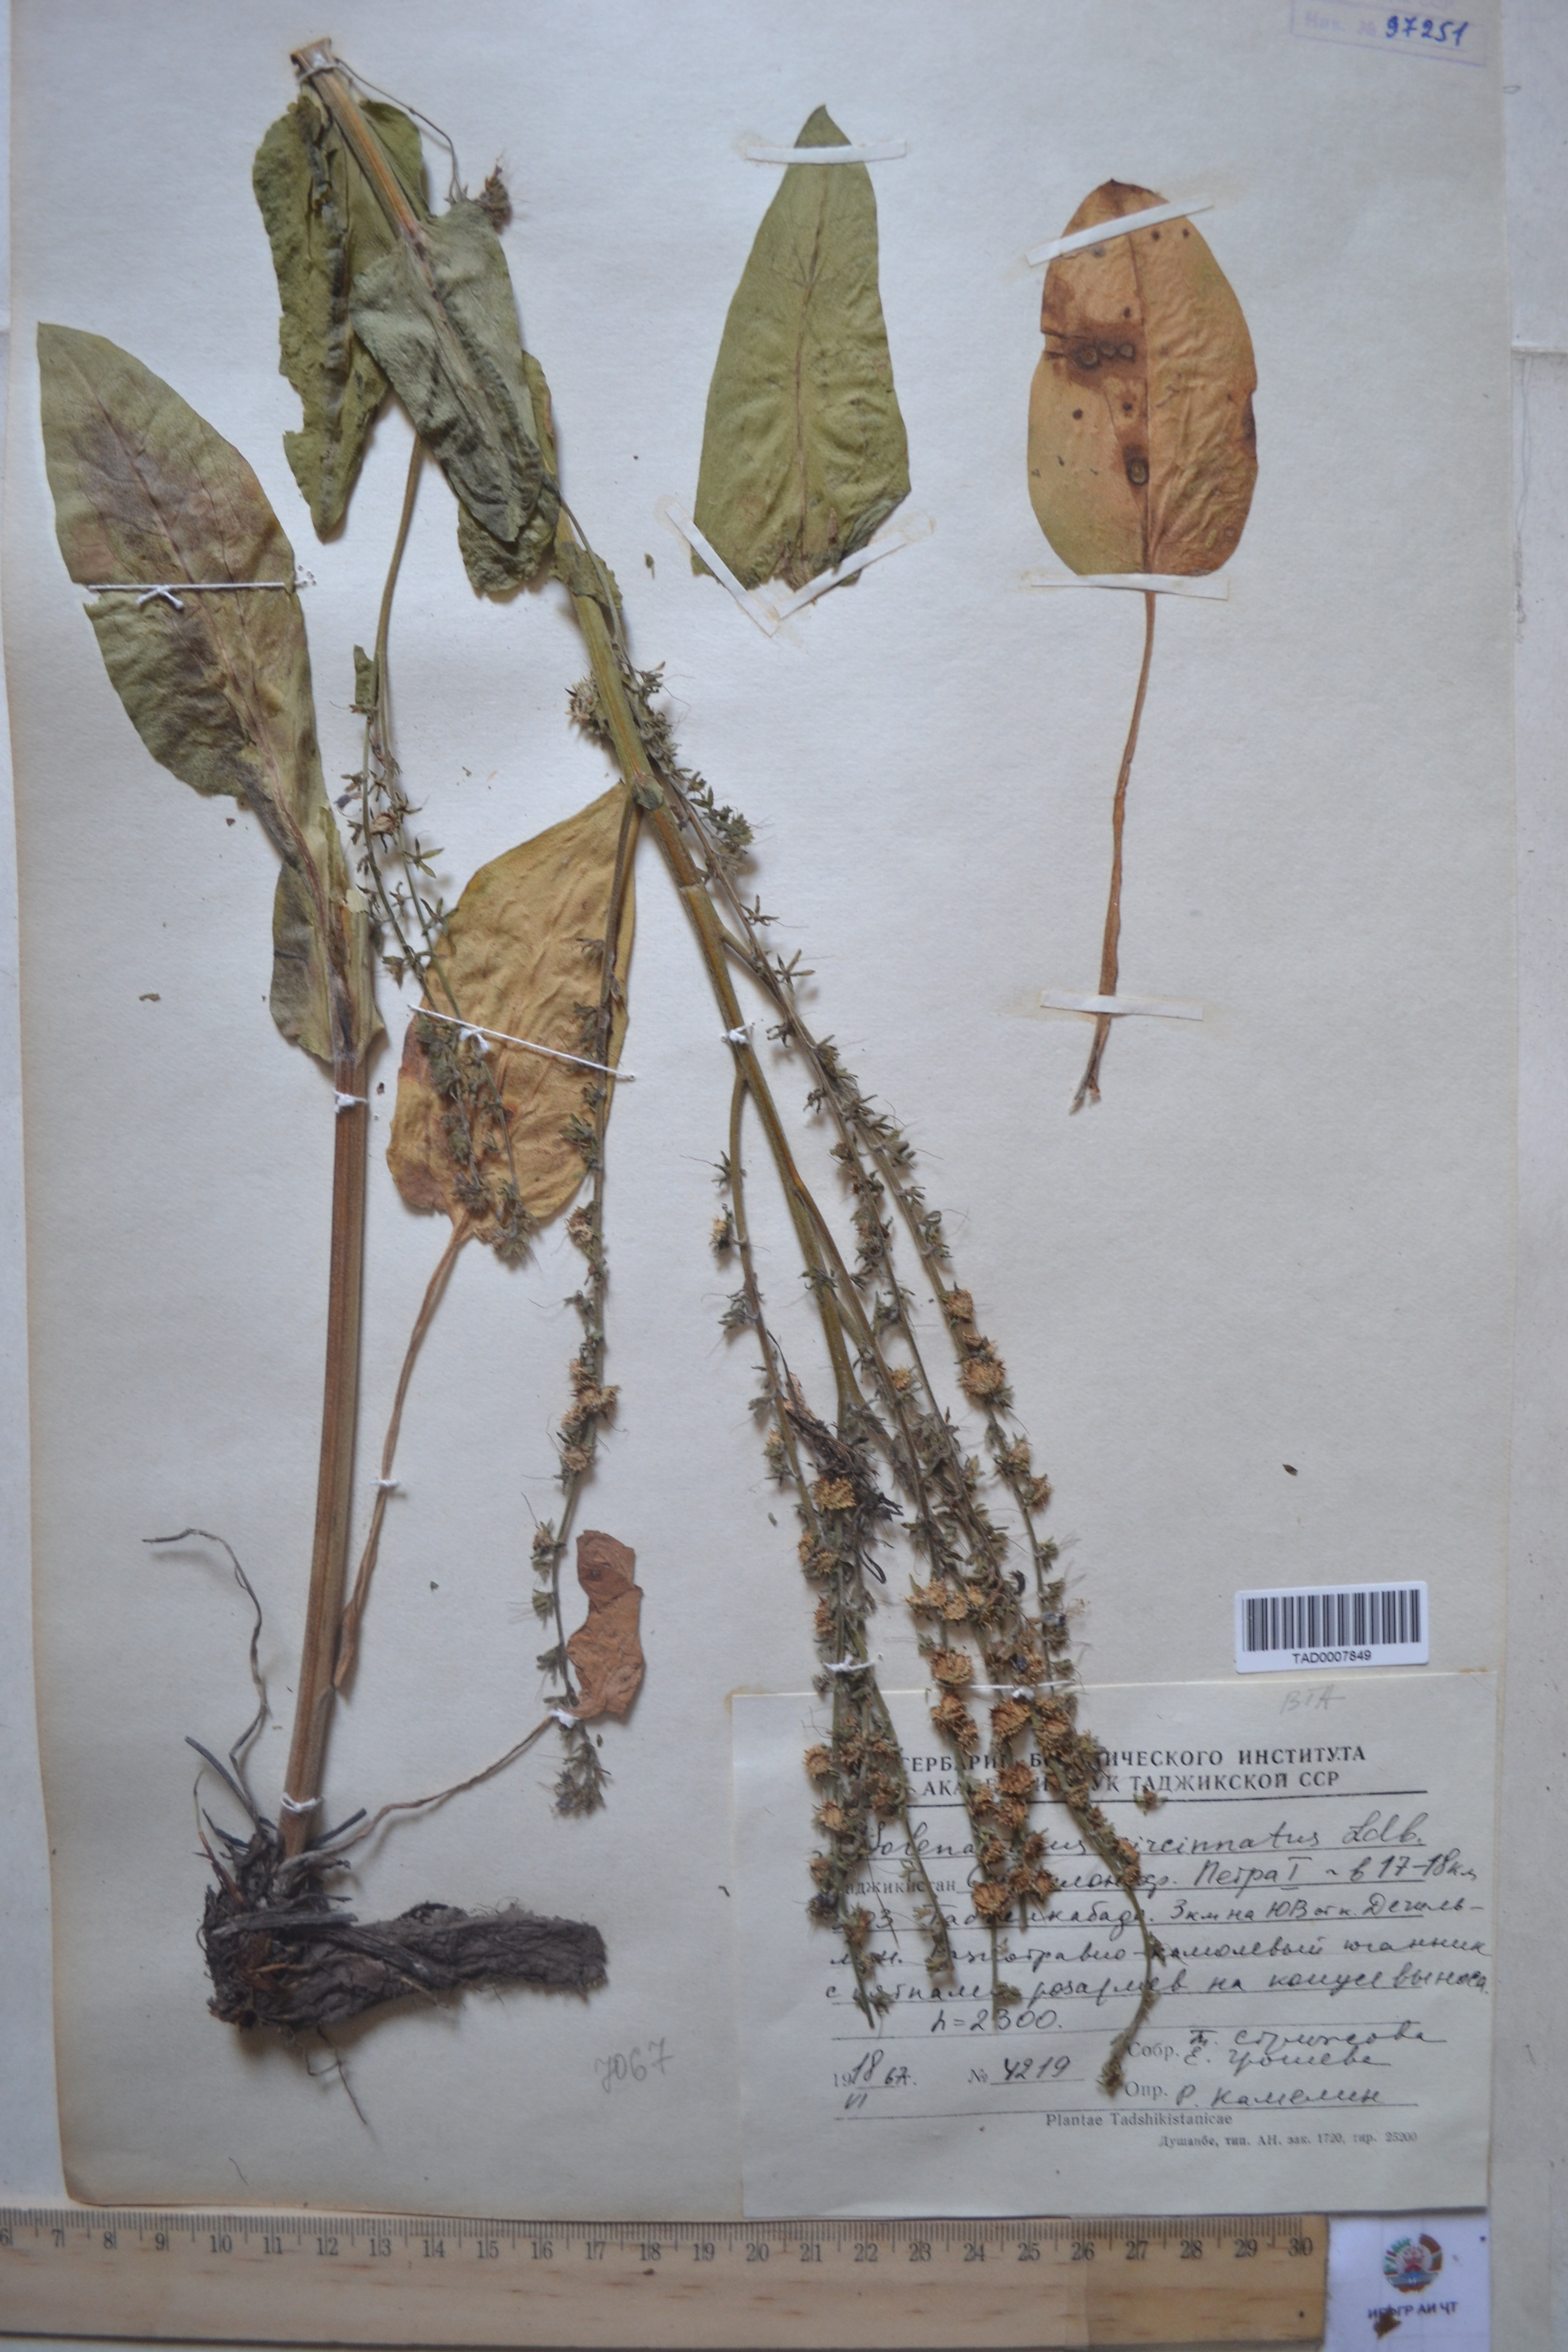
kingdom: Plantae
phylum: Tracheophyta
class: Magnoliopsida
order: Boraginales
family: Boraginaceae
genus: Solenanthus
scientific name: Solenanthus circinnatus
